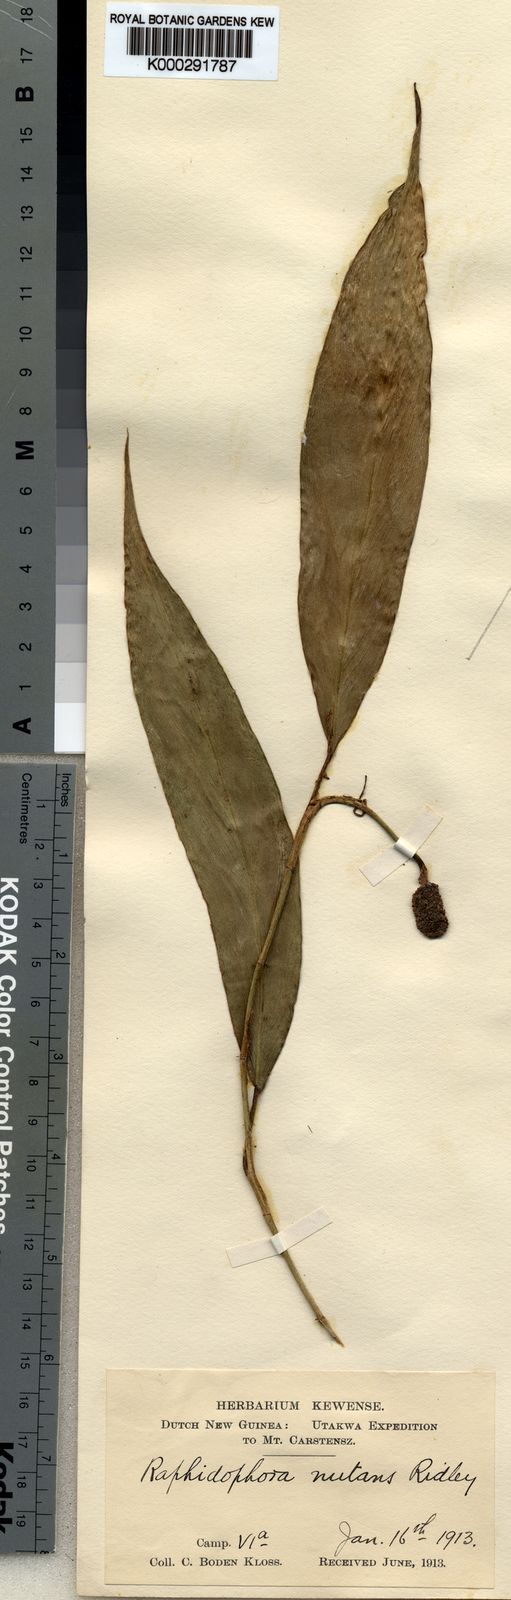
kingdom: Plantae
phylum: Tracheophyta
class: Liliopsida
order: Alismatales
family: Araceae
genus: Rhaphidophora
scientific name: Rhaphidophora microspadix
